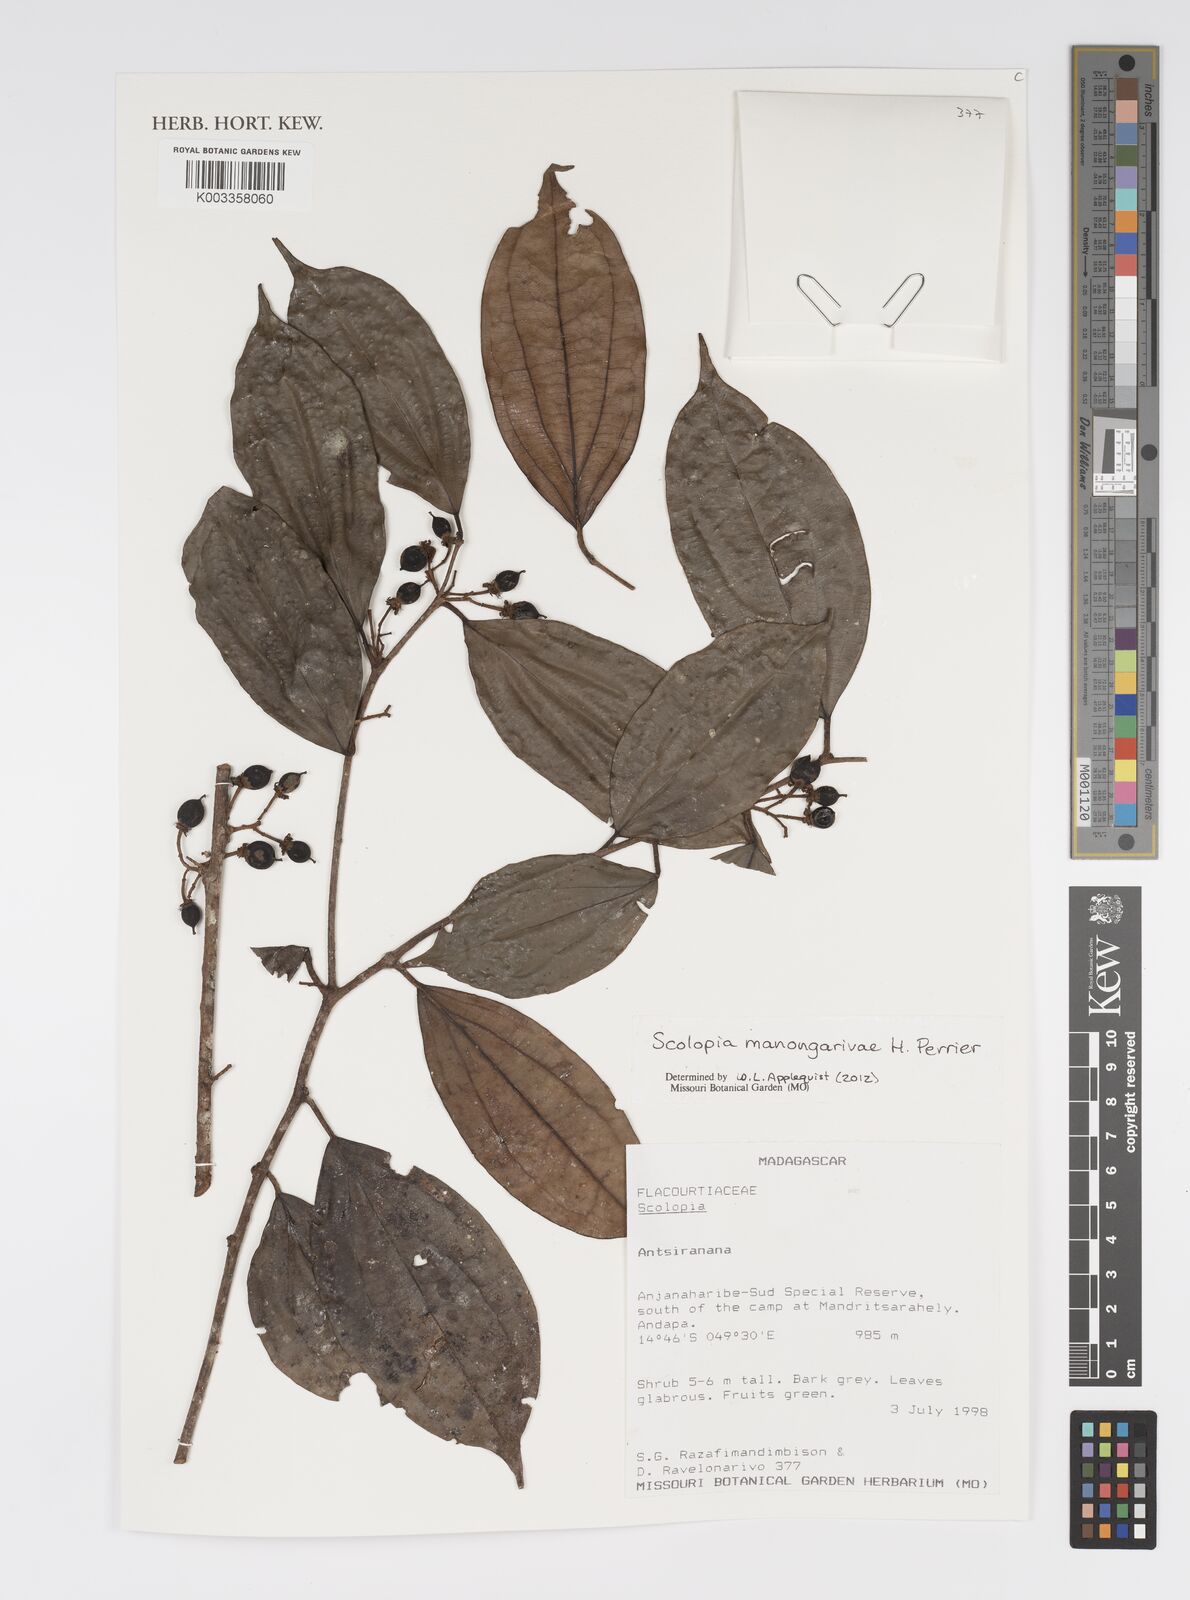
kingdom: Plantae
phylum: Tracheophyta
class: Magnoliopsida
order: Malpighiales
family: Salicaceae
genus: Scolopia
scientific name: Scolopia manongarivae
